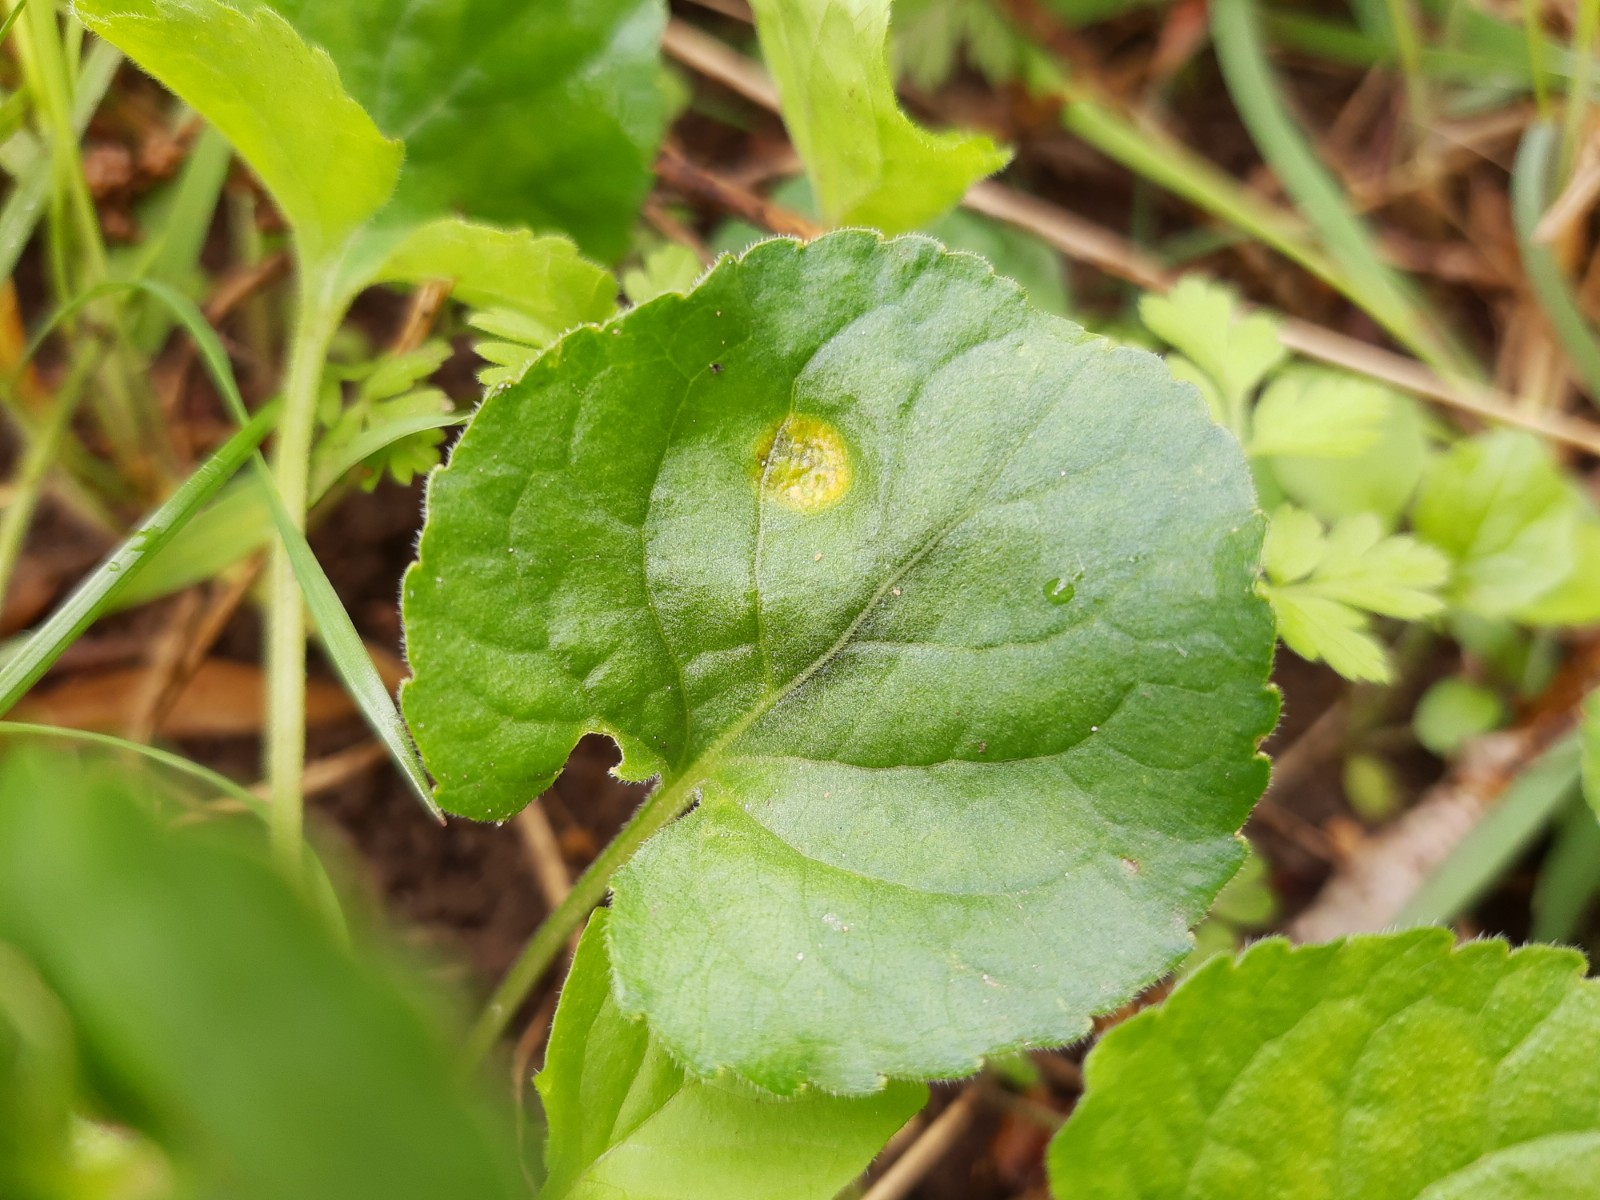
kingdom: Fungi
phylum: Basidiomycota
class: Pucciniomycetes
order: Pucciniales
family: Pucciniaceae
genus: Puccinia
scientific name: Puccinia violae
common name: viol-tvecellerust
